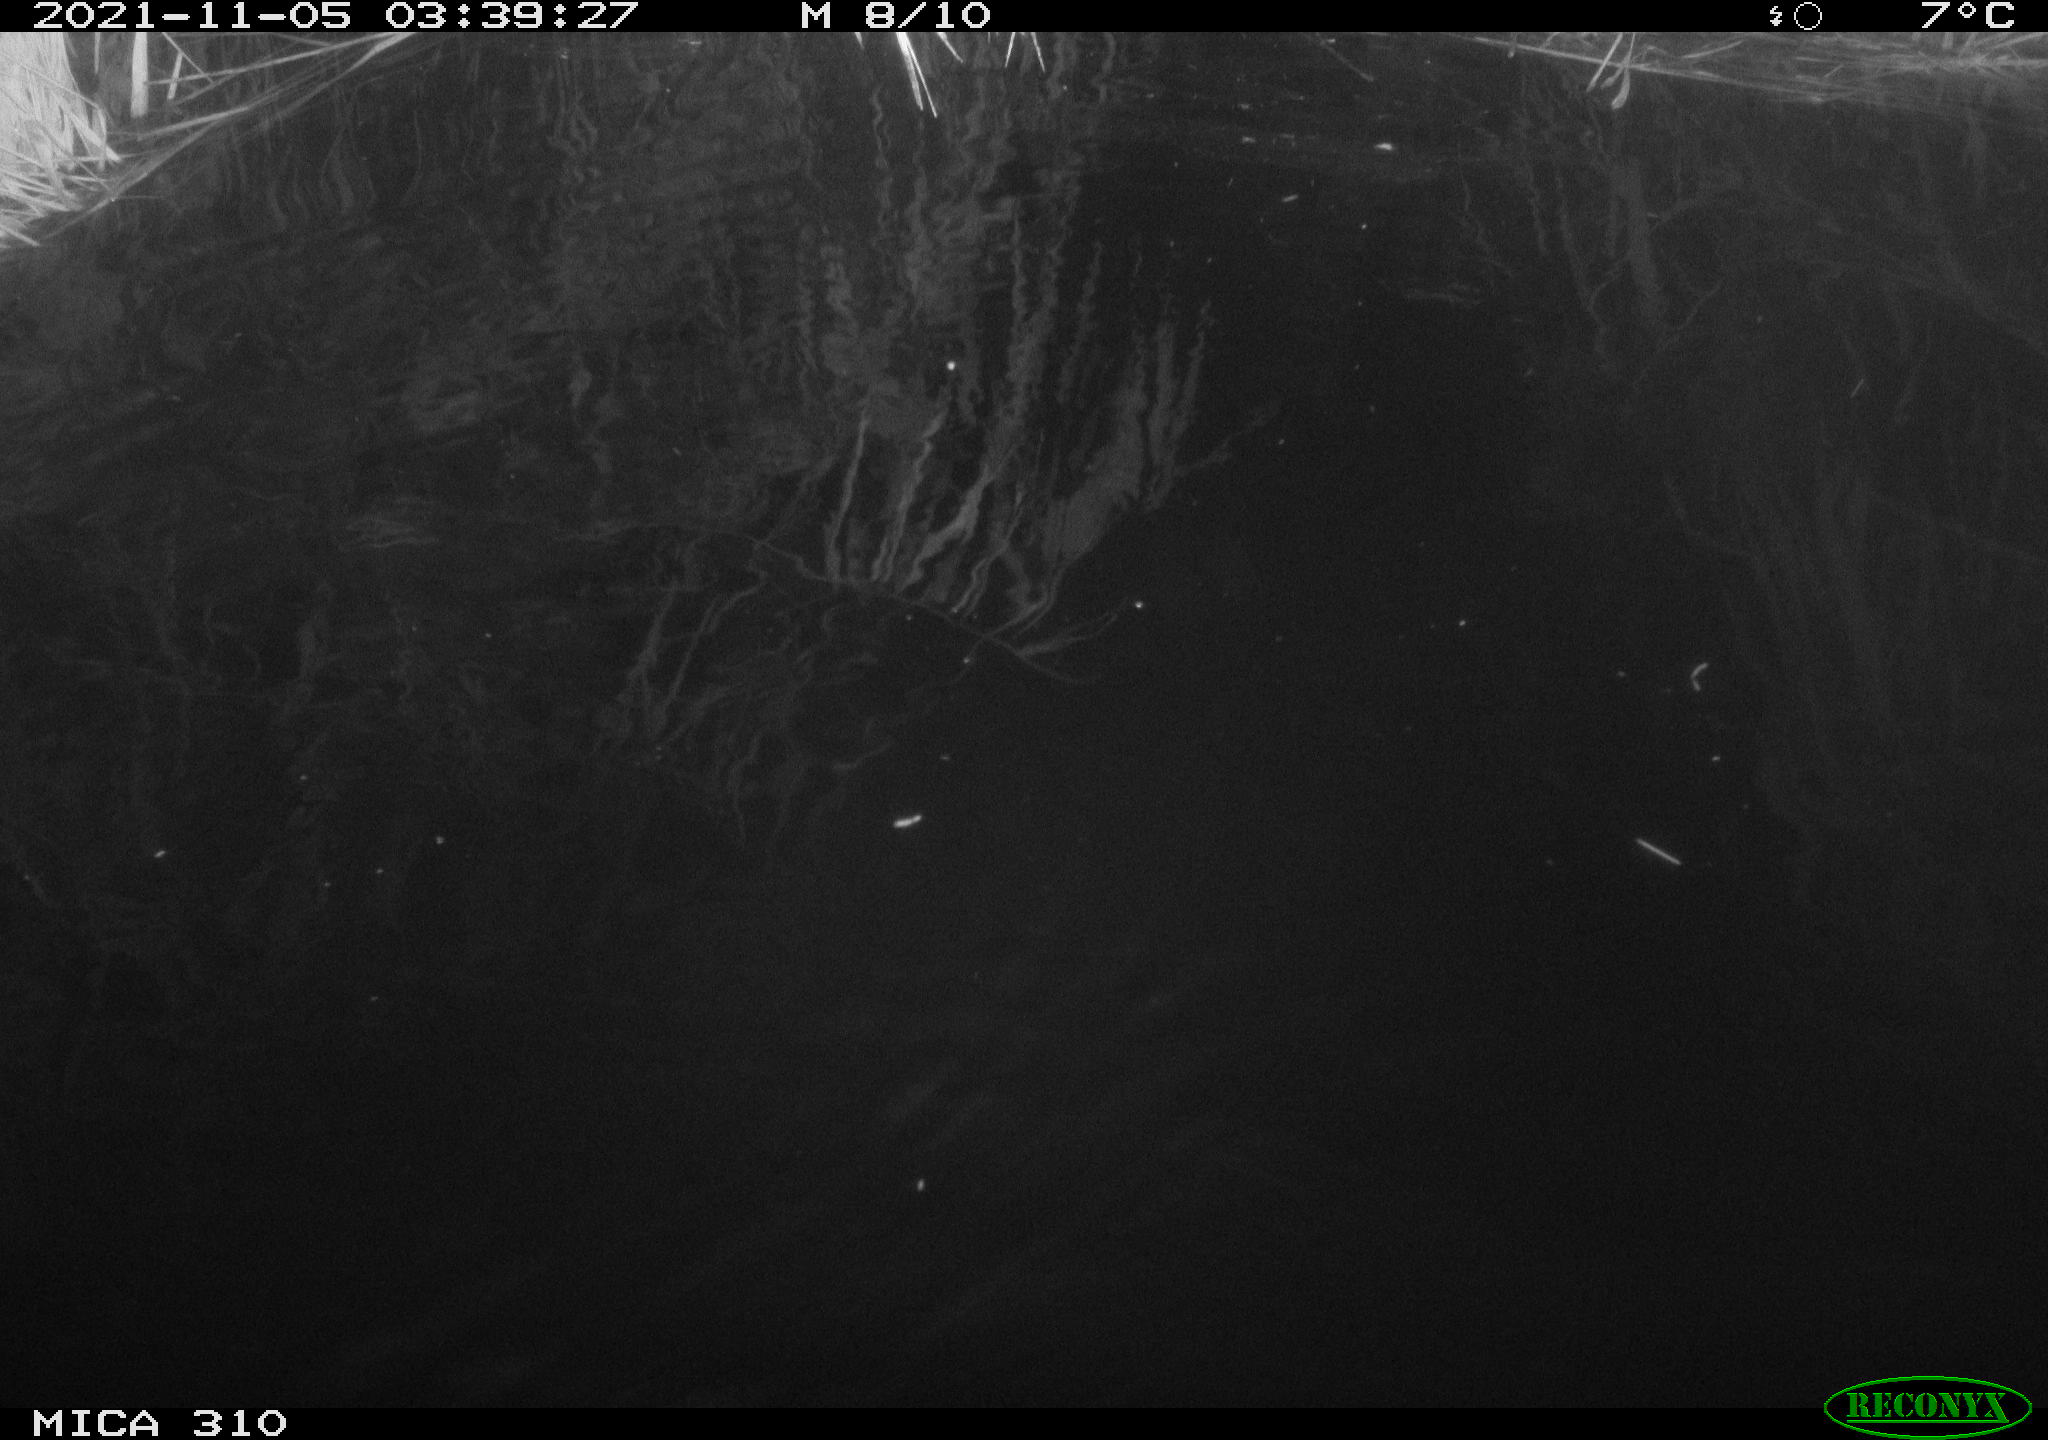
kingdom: Animalia
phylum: Chordata
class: Mammalia
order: Rodentia
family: Muridae
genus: Rattus
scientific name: Rattus norvegicus
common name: Brown rat
